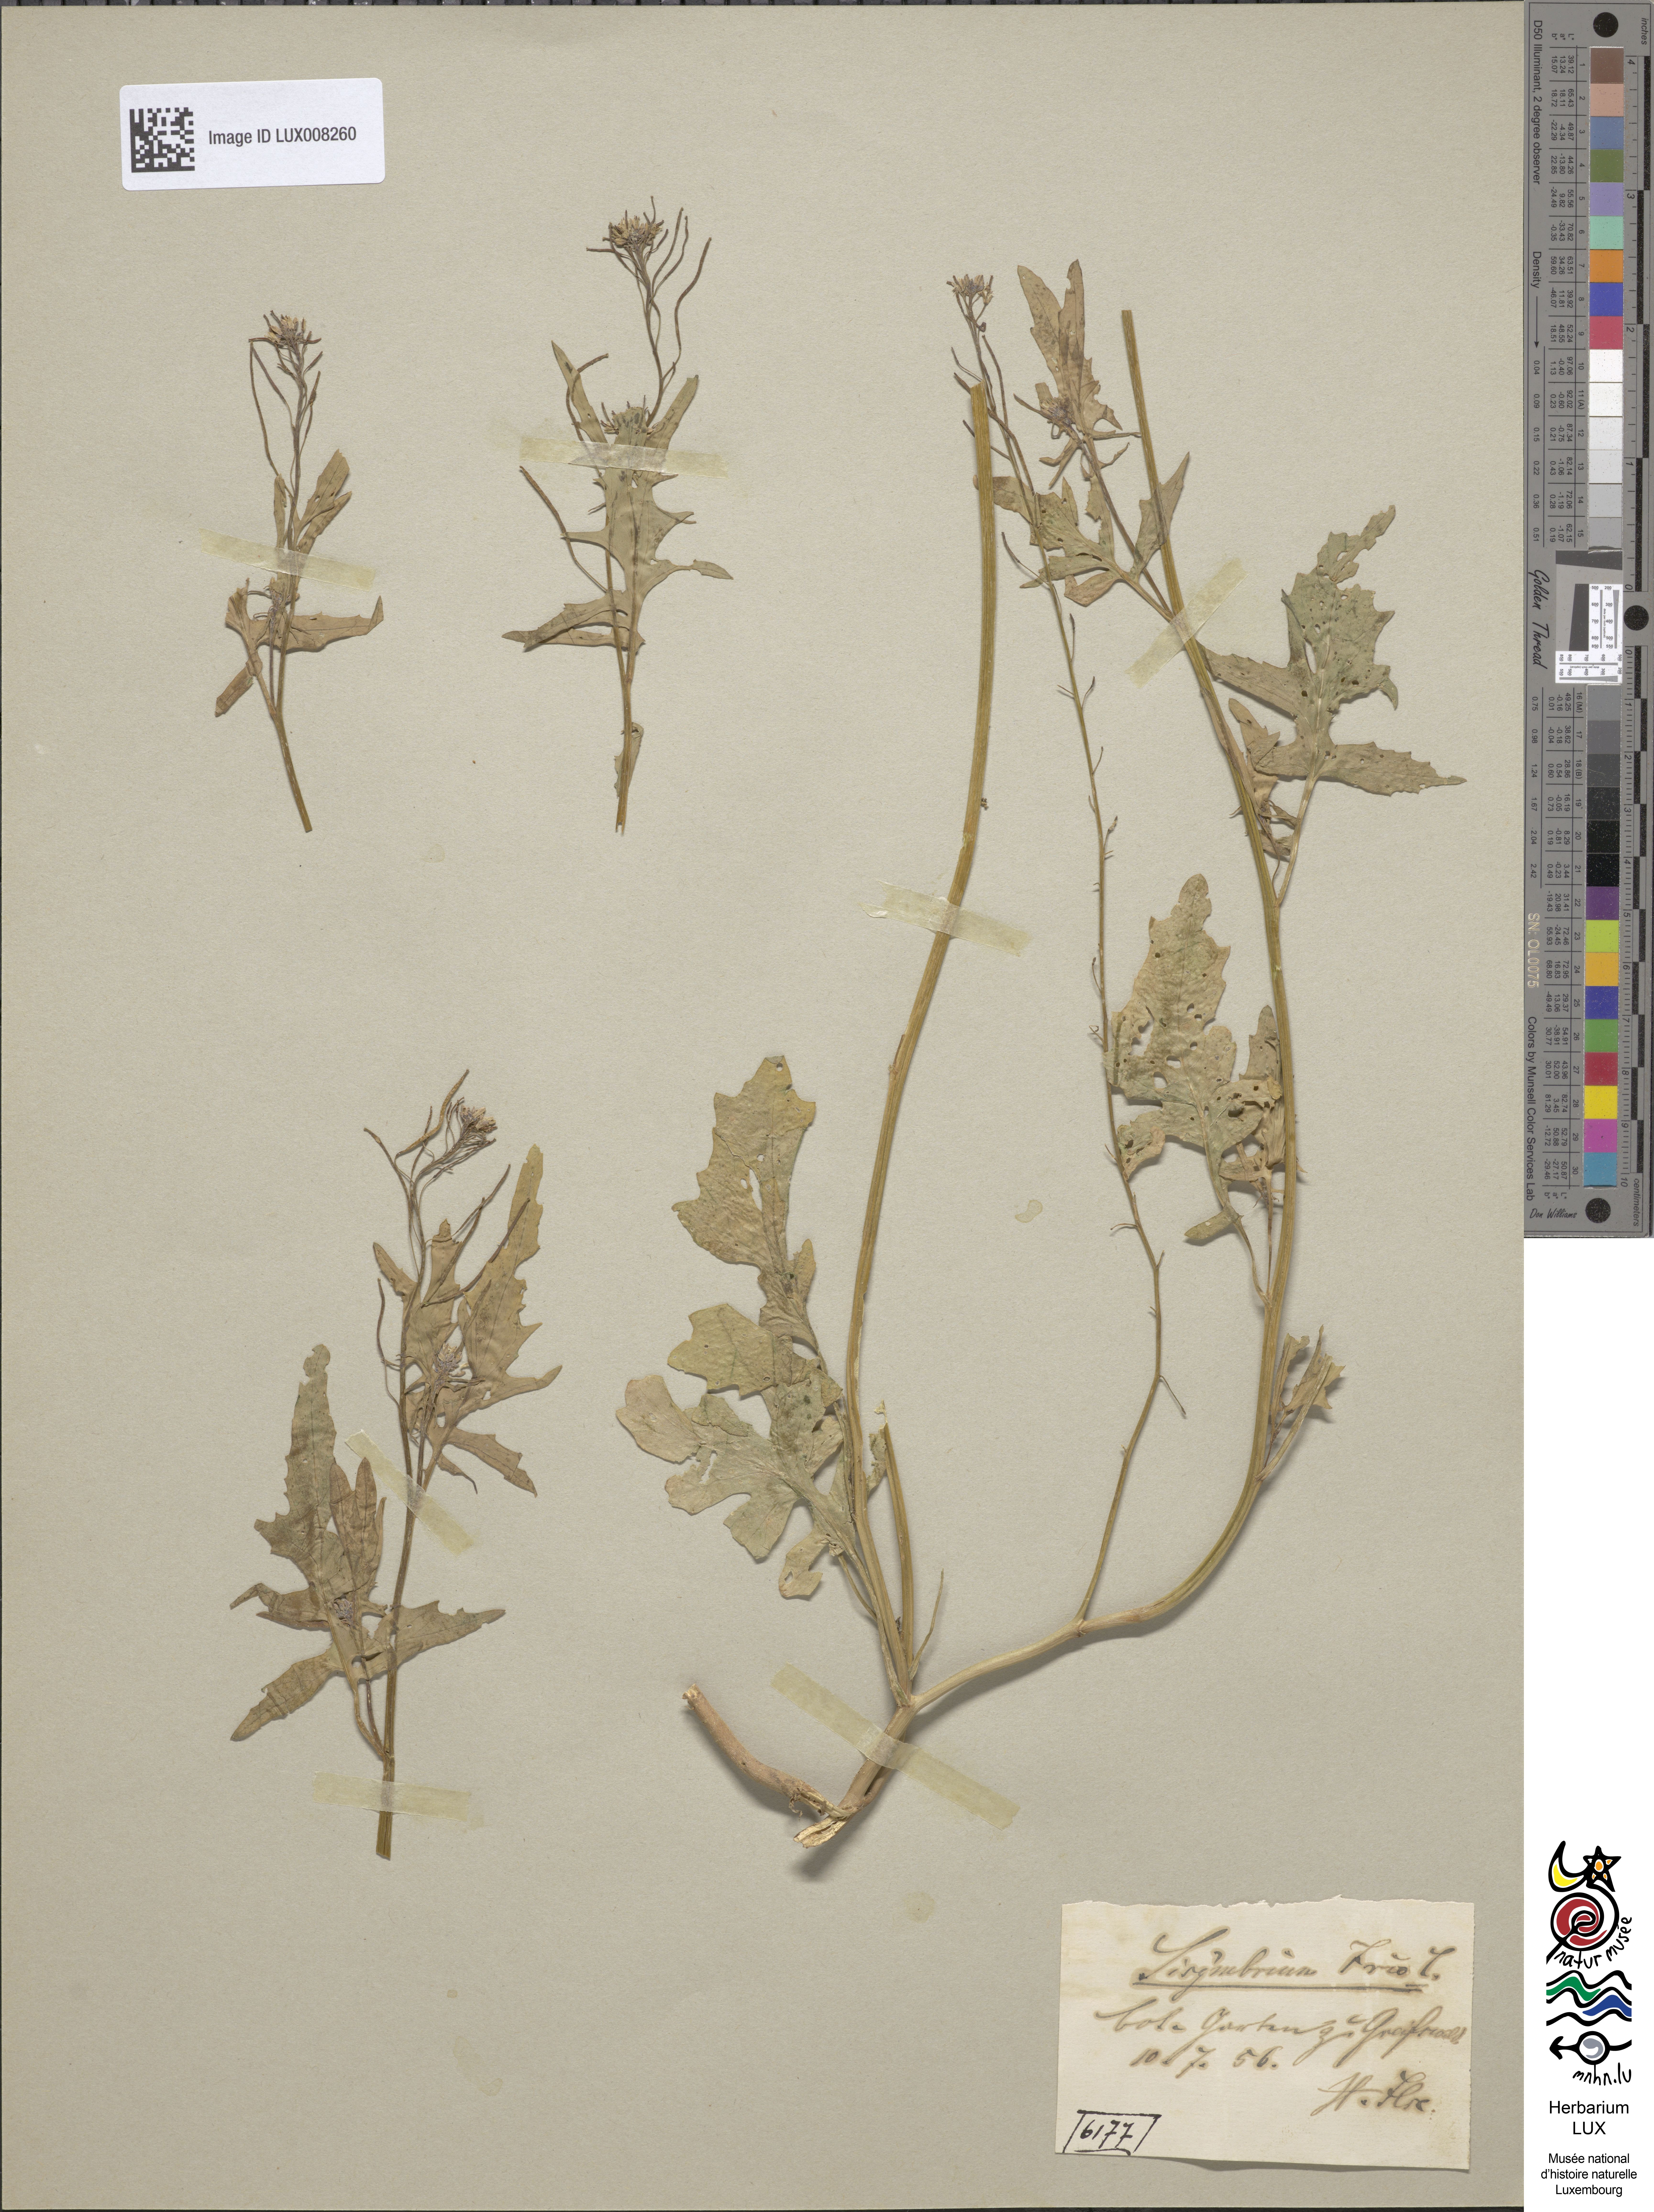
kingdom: Plantae
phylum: Tracheophyta
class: Magnoliopsida
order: Brassicales
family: Brassicaceae
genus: Sisymbrium
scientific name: Sisymbrium irio
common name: London rocket
